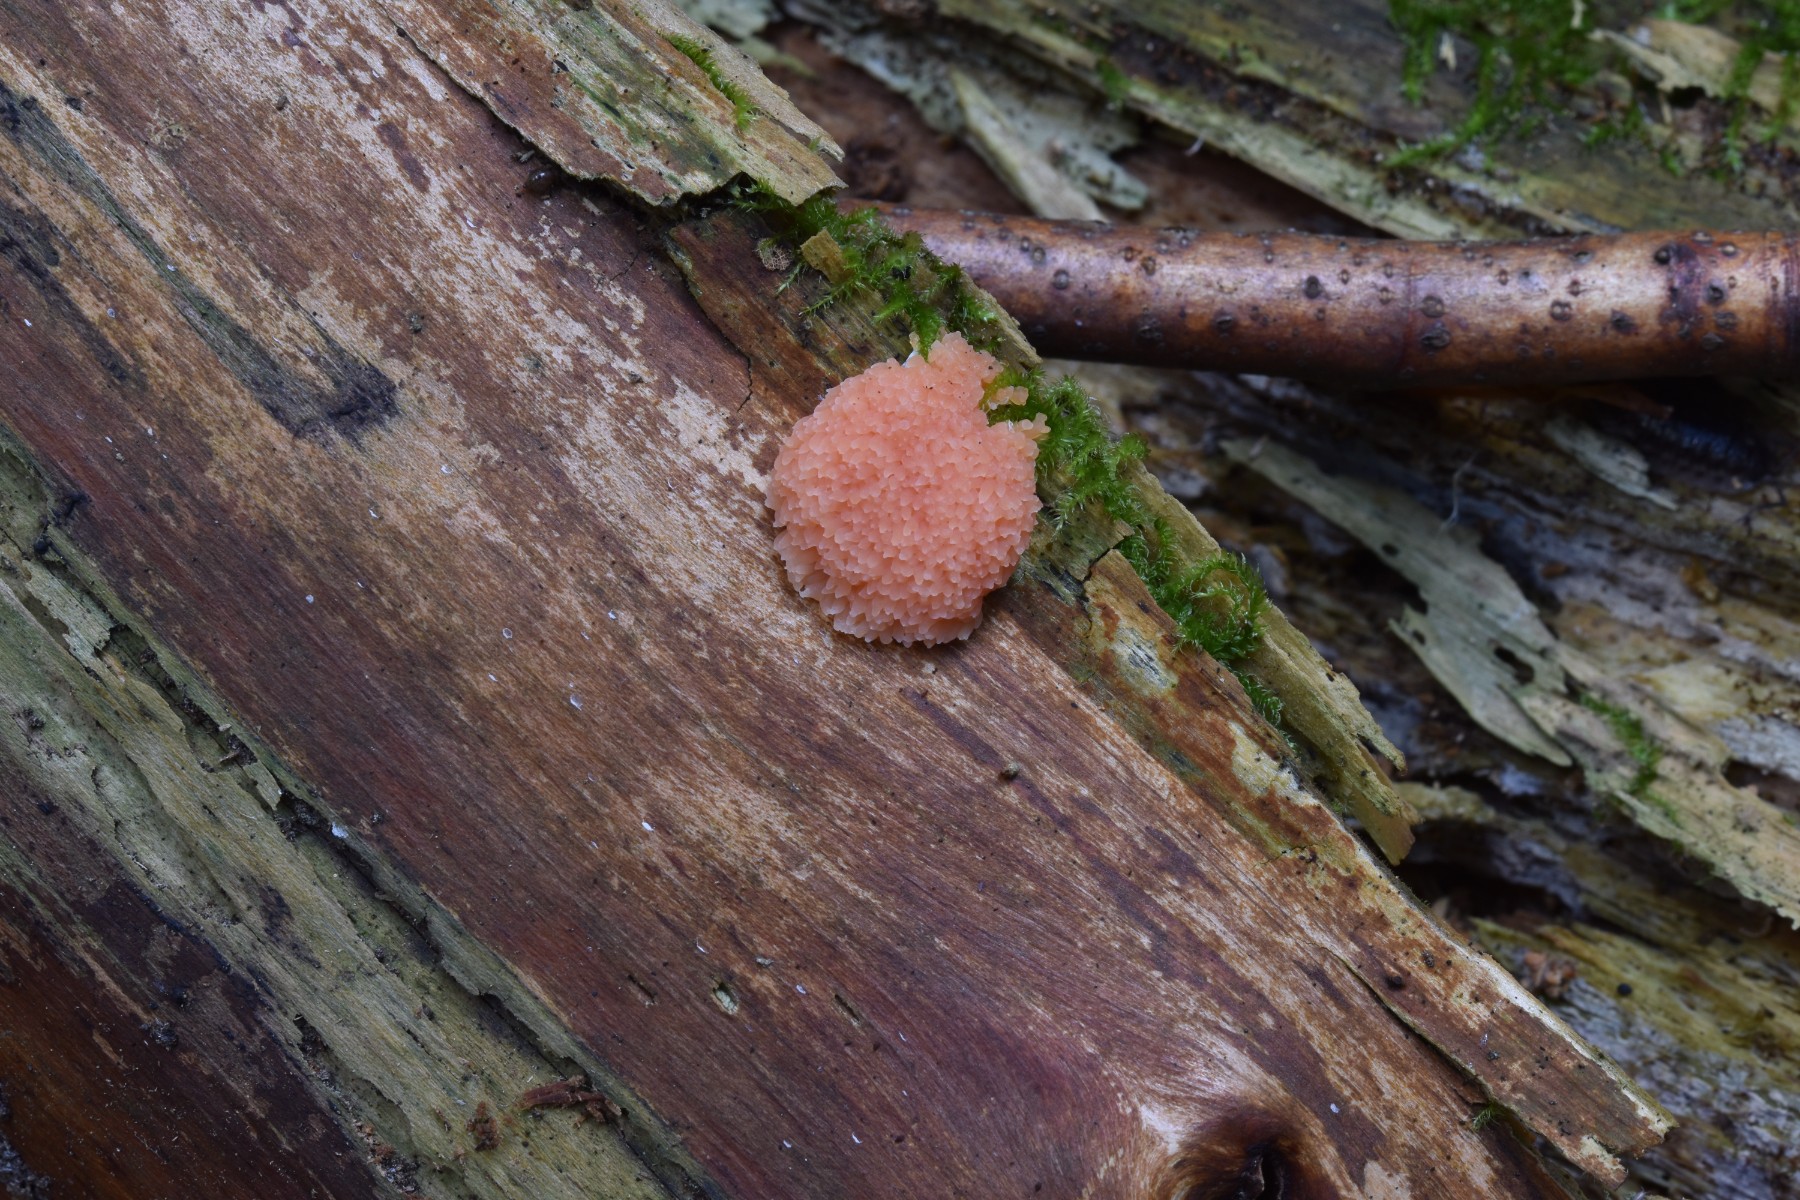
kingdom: Protozoa
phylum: Mycetozoa
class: Myxomycetes
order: Cribrariales
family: Tubiferaceae
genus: Tubifera
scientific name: Tubifera ferruginosa
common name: kanel-støvrør
